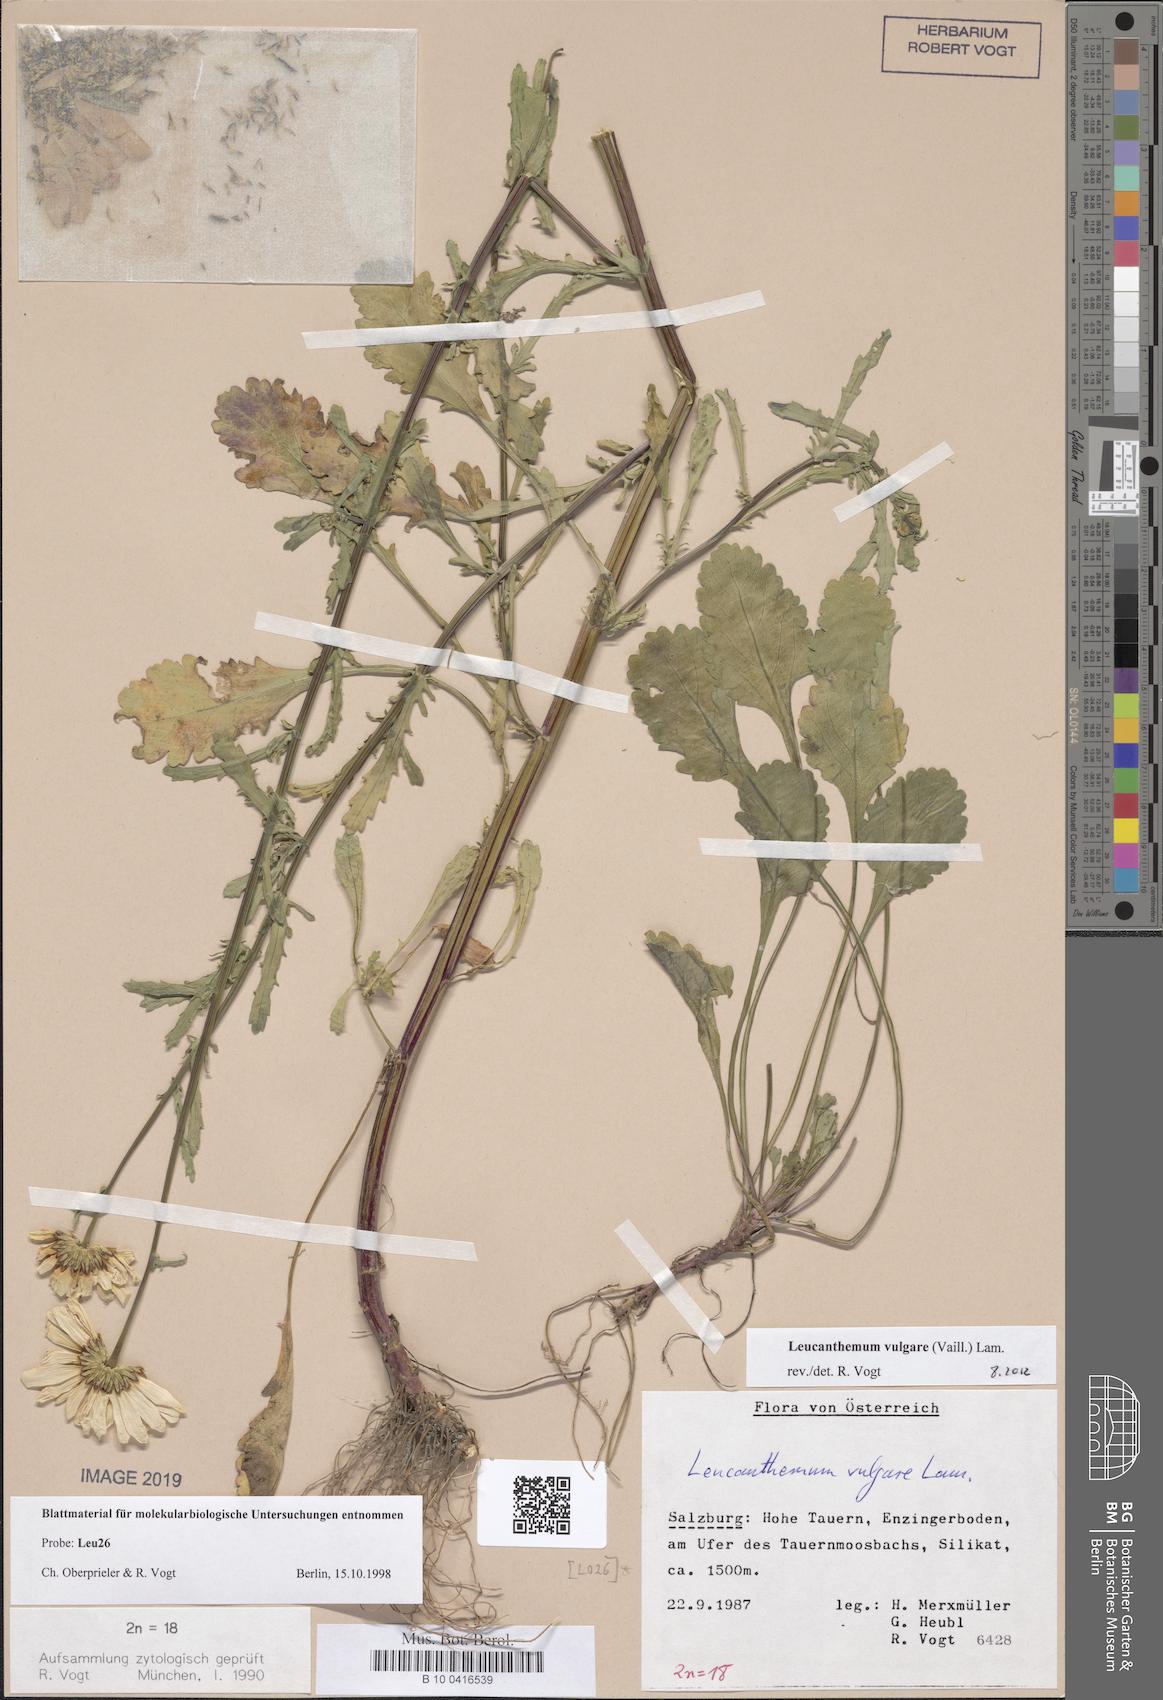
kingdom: Plantae
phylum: Tracheophyta
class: Magnoliopsida
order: Asterales
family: Asteraceae
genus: Leucanthemum
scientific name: Leucanthemum vulgare
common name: Oxeye daisy
